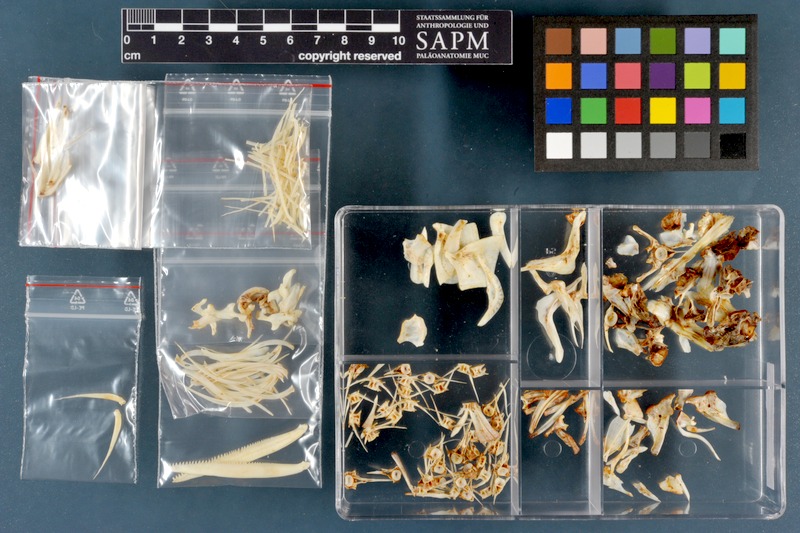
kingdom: Animalia
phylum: Chordata
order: Cypriniformes
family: Cyprinidae
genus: Luciobarbus
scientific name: Luciobarbus pectoralis
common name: Levantine barbel
